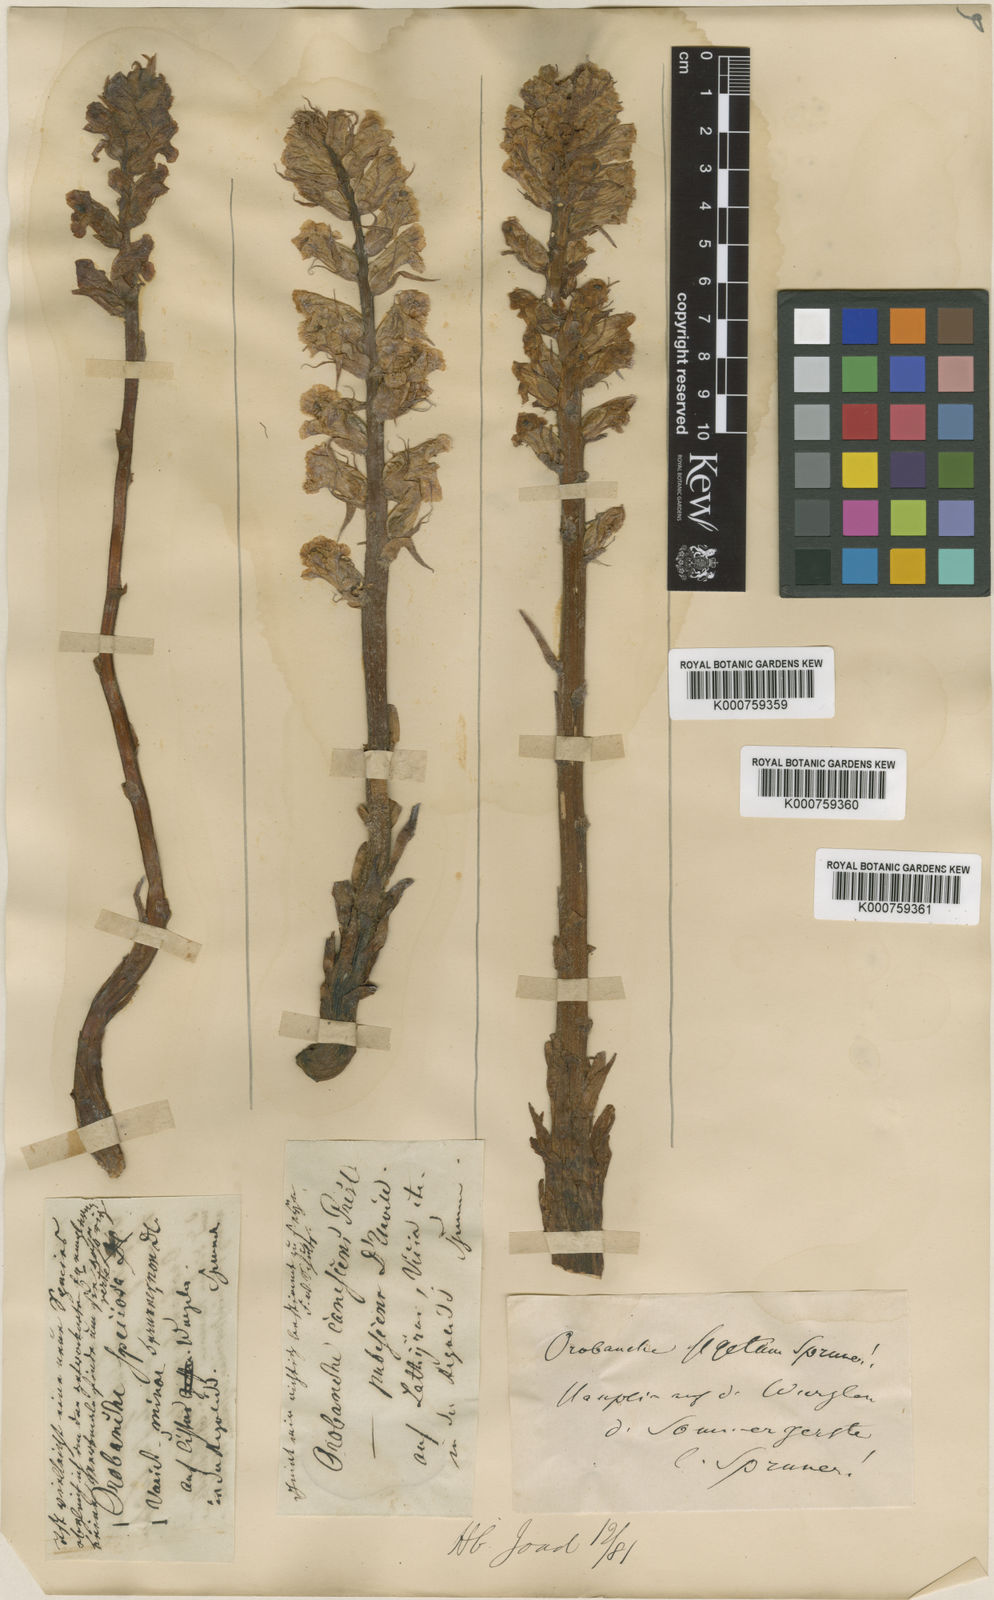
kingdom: Plantae
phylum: Tracheophyta
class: Magnoliopsida
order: Lamiales
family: Orobanchaceae
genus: Orobanche
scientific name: Orobanche coerulescens
